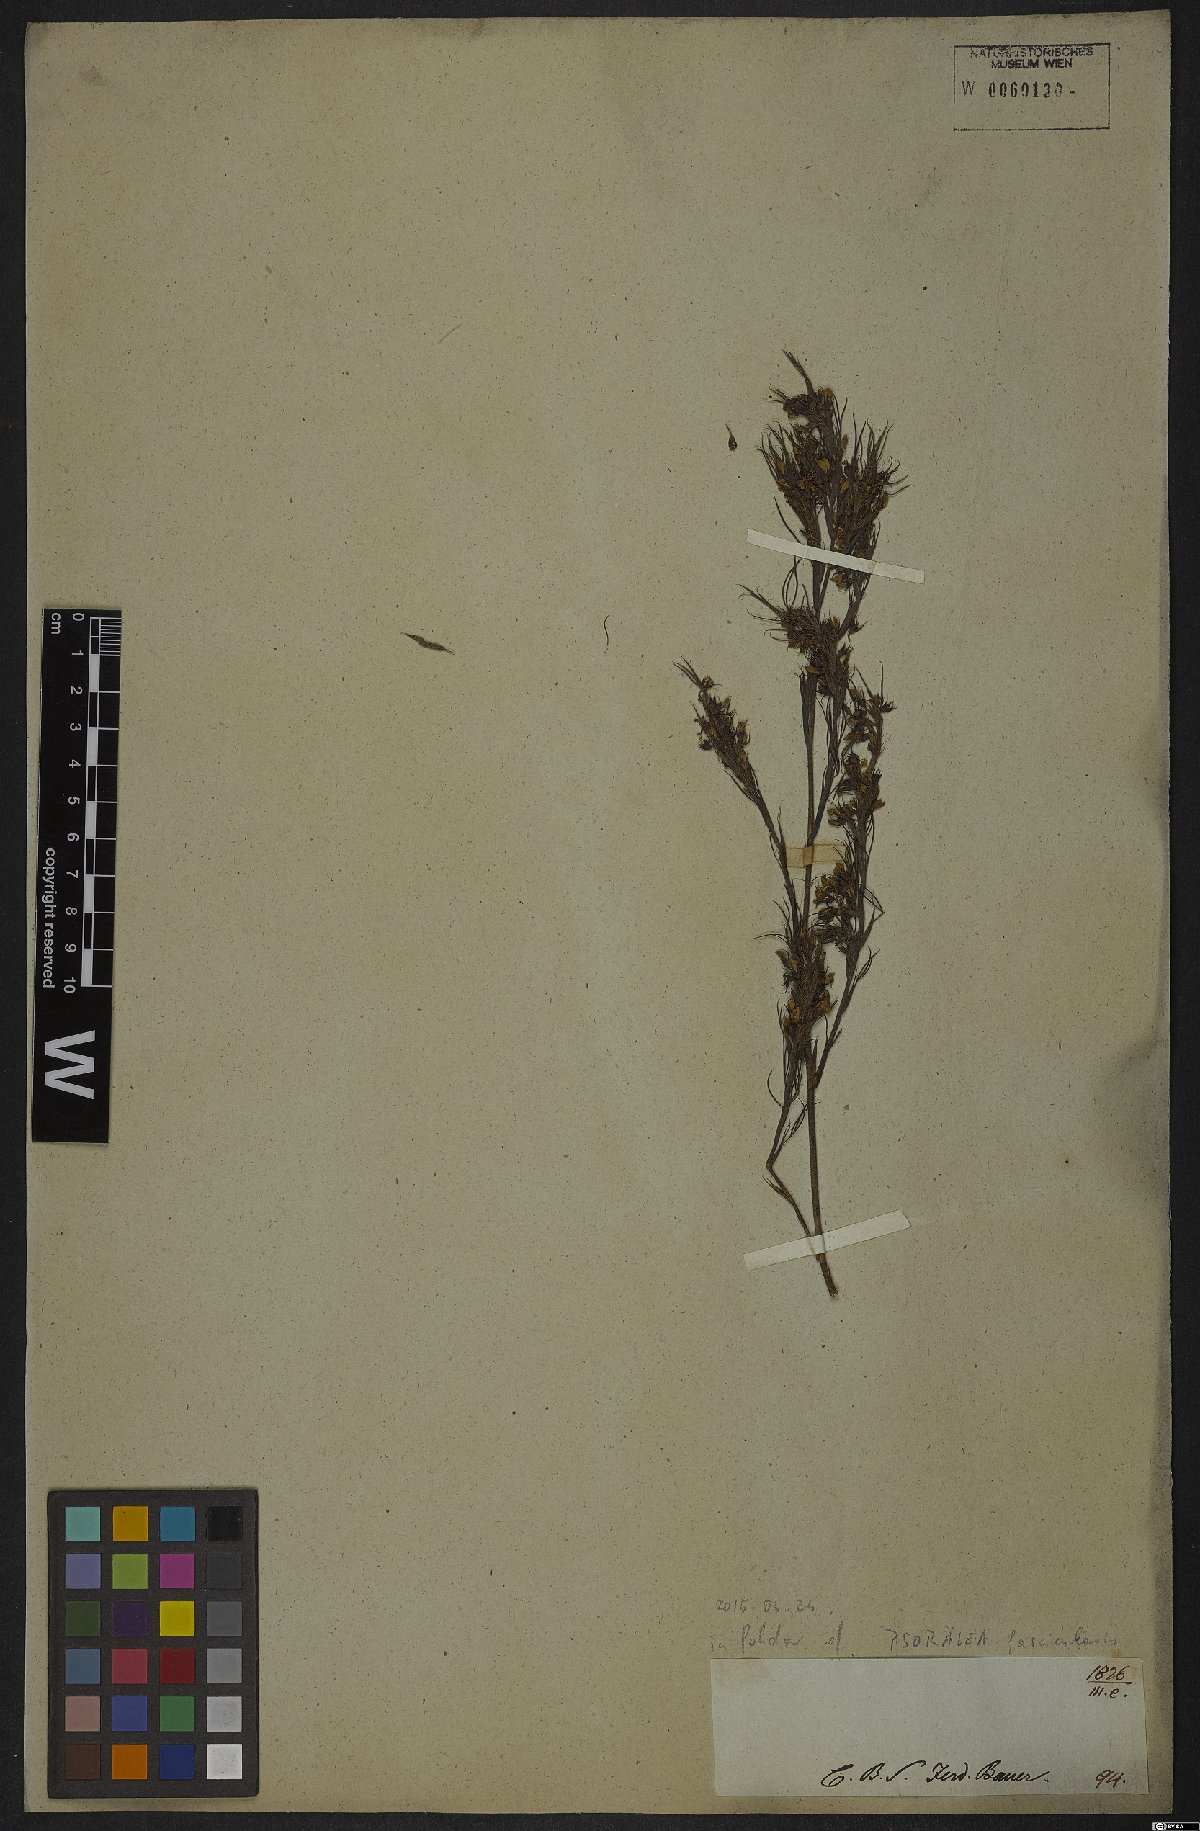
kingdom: Plantae
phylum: Tracheophyta
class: Magnoliopsida
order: Fabales
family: Fabaceae
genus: Psoralea
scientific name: Psoralea fascicularis
